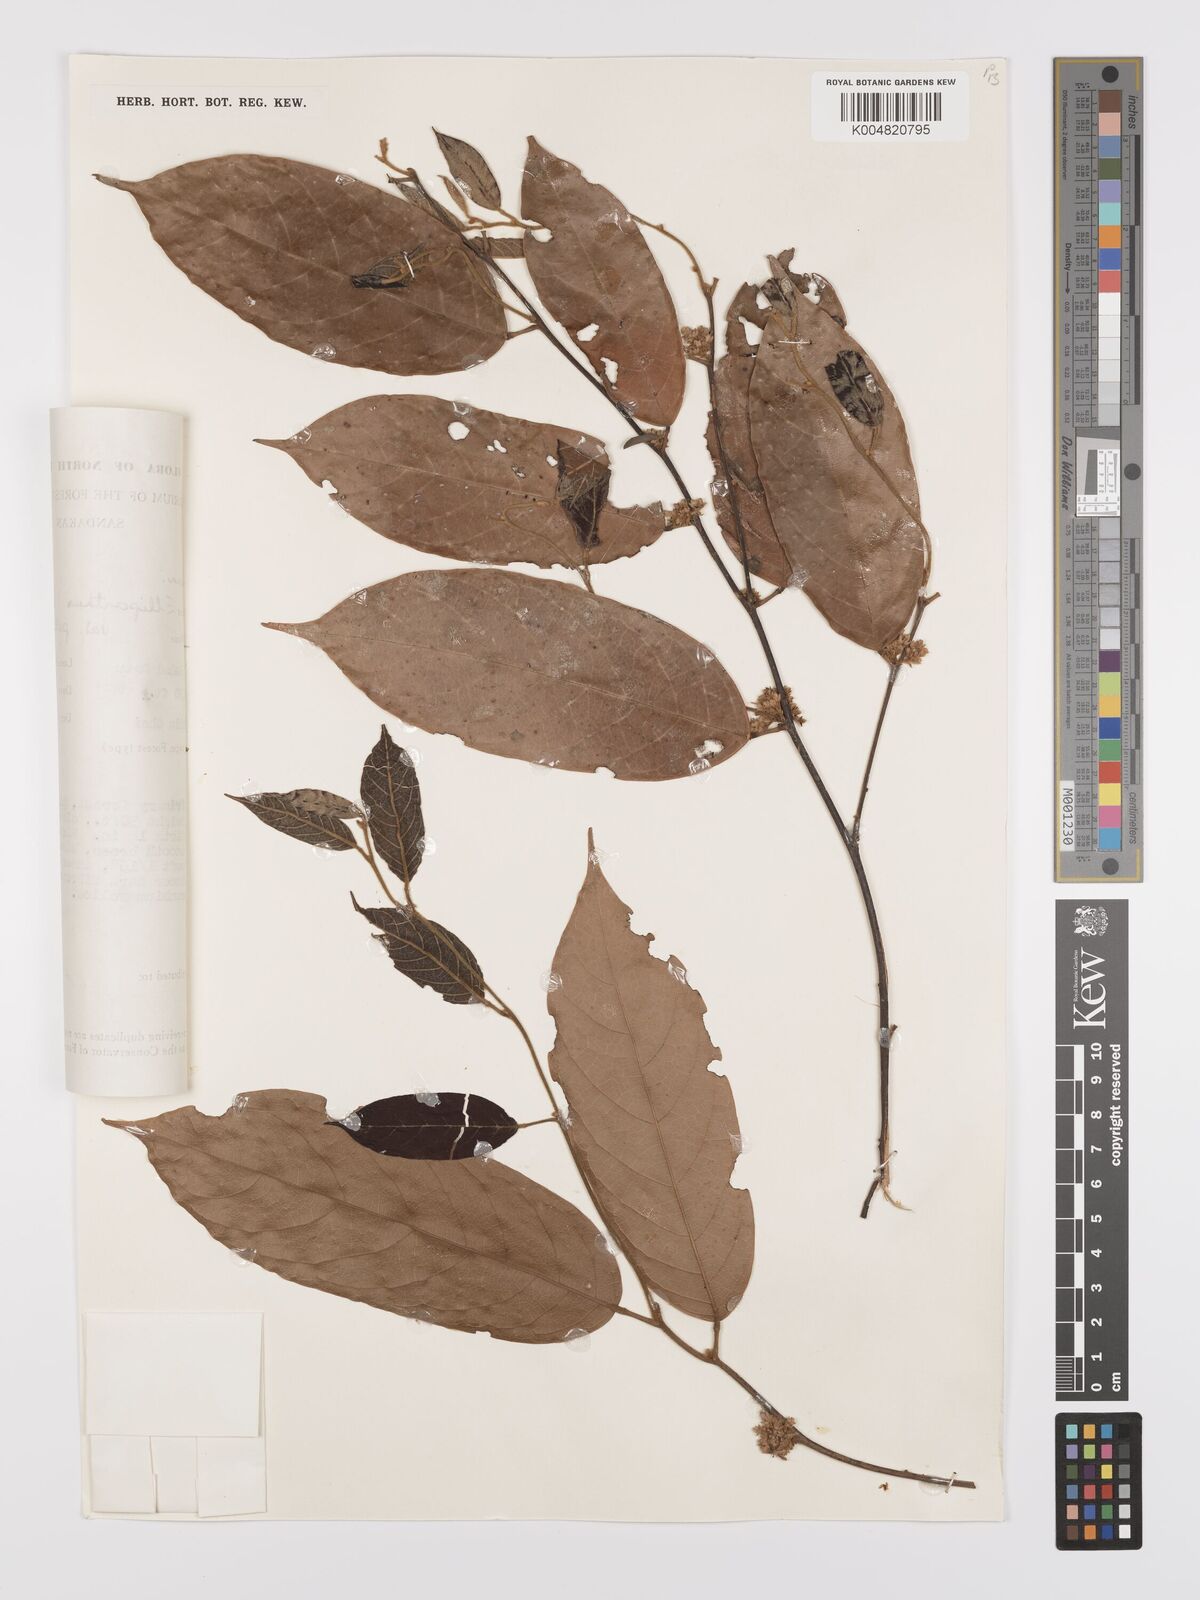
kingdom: Plantae
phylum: Tracheophyta
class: Magnoliopsida
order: Oxalidales
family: Connaraceae
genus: Ellipanthus
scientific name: Ellipanthus beccarii
